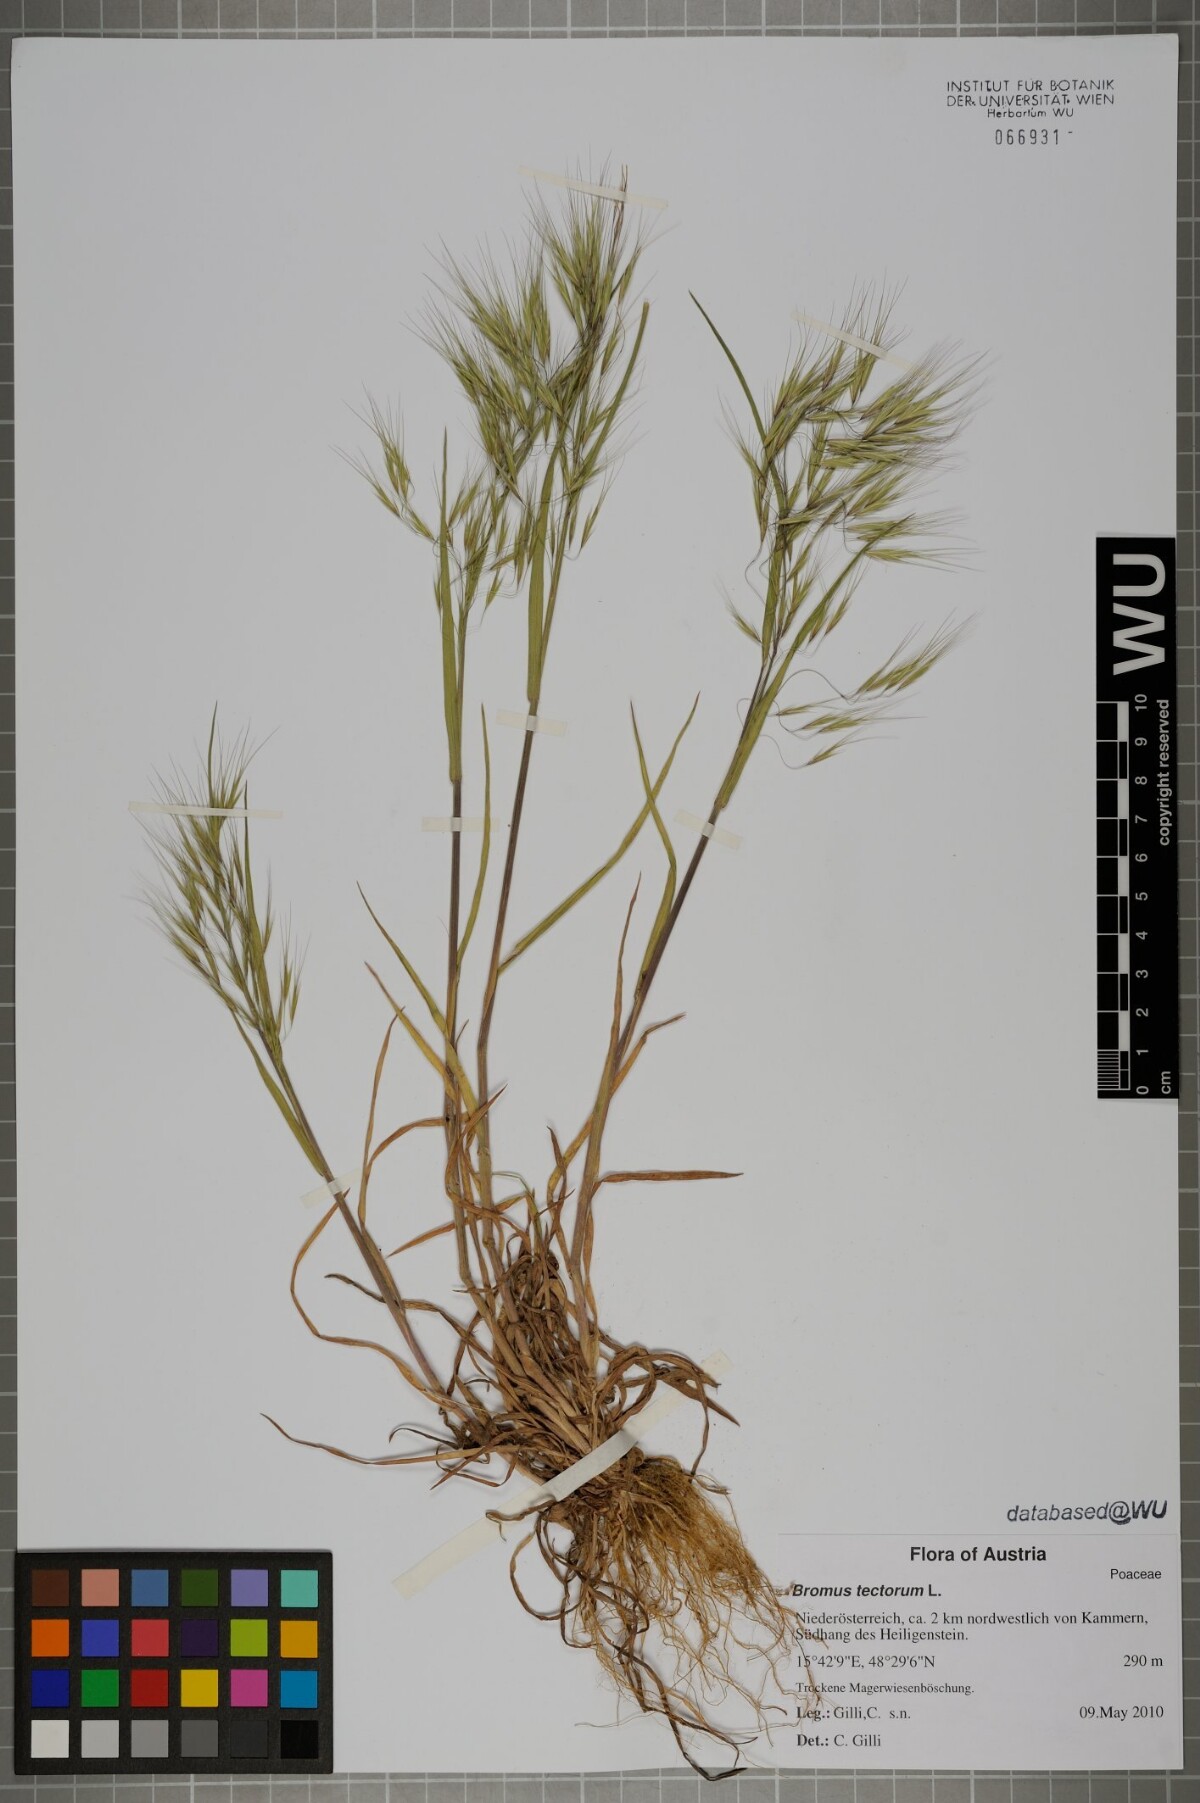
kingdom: Plantae
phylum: Tracheophyta
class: Liliopsida
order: Poales
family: Poaceae
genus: Bromus
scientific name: Bromus tectorum
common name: Cheatgrass
